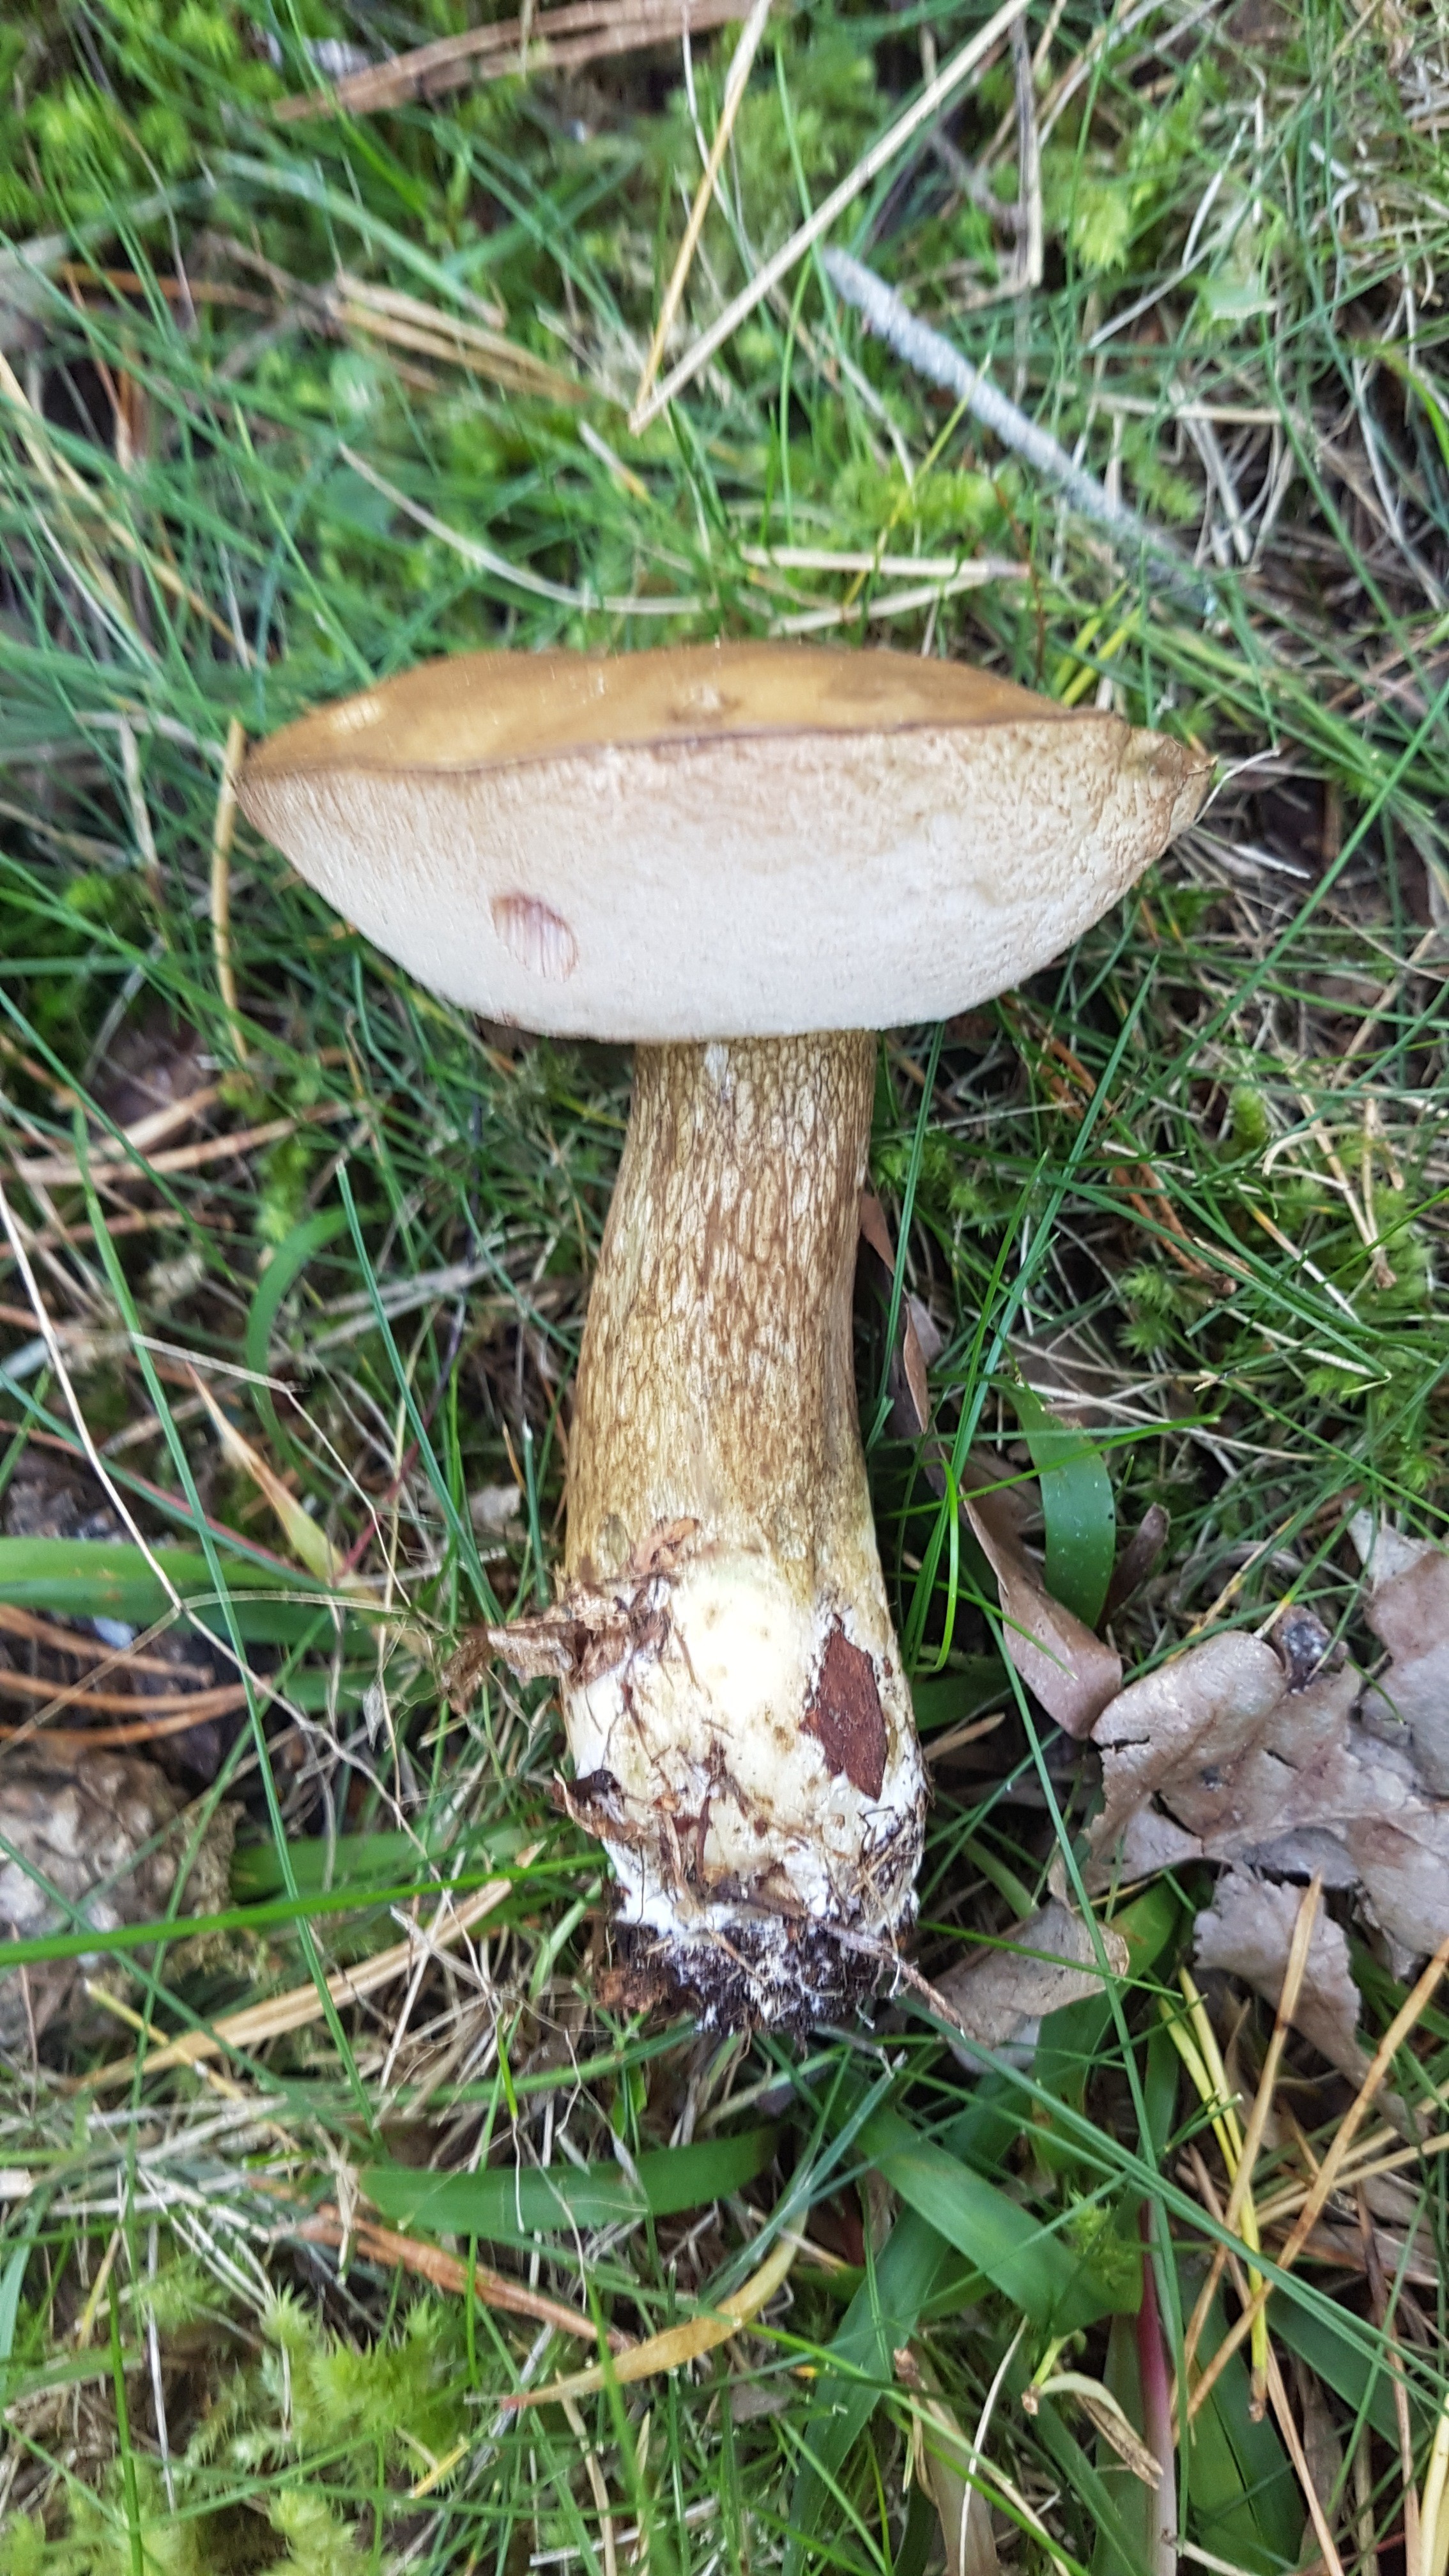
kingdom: Fungi
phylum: Basidiomycota
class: Agaricomycetes
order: Boletales
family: Boletaceae
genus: Tylopilus
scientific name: Tylopilus felleus
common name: galderørhat
